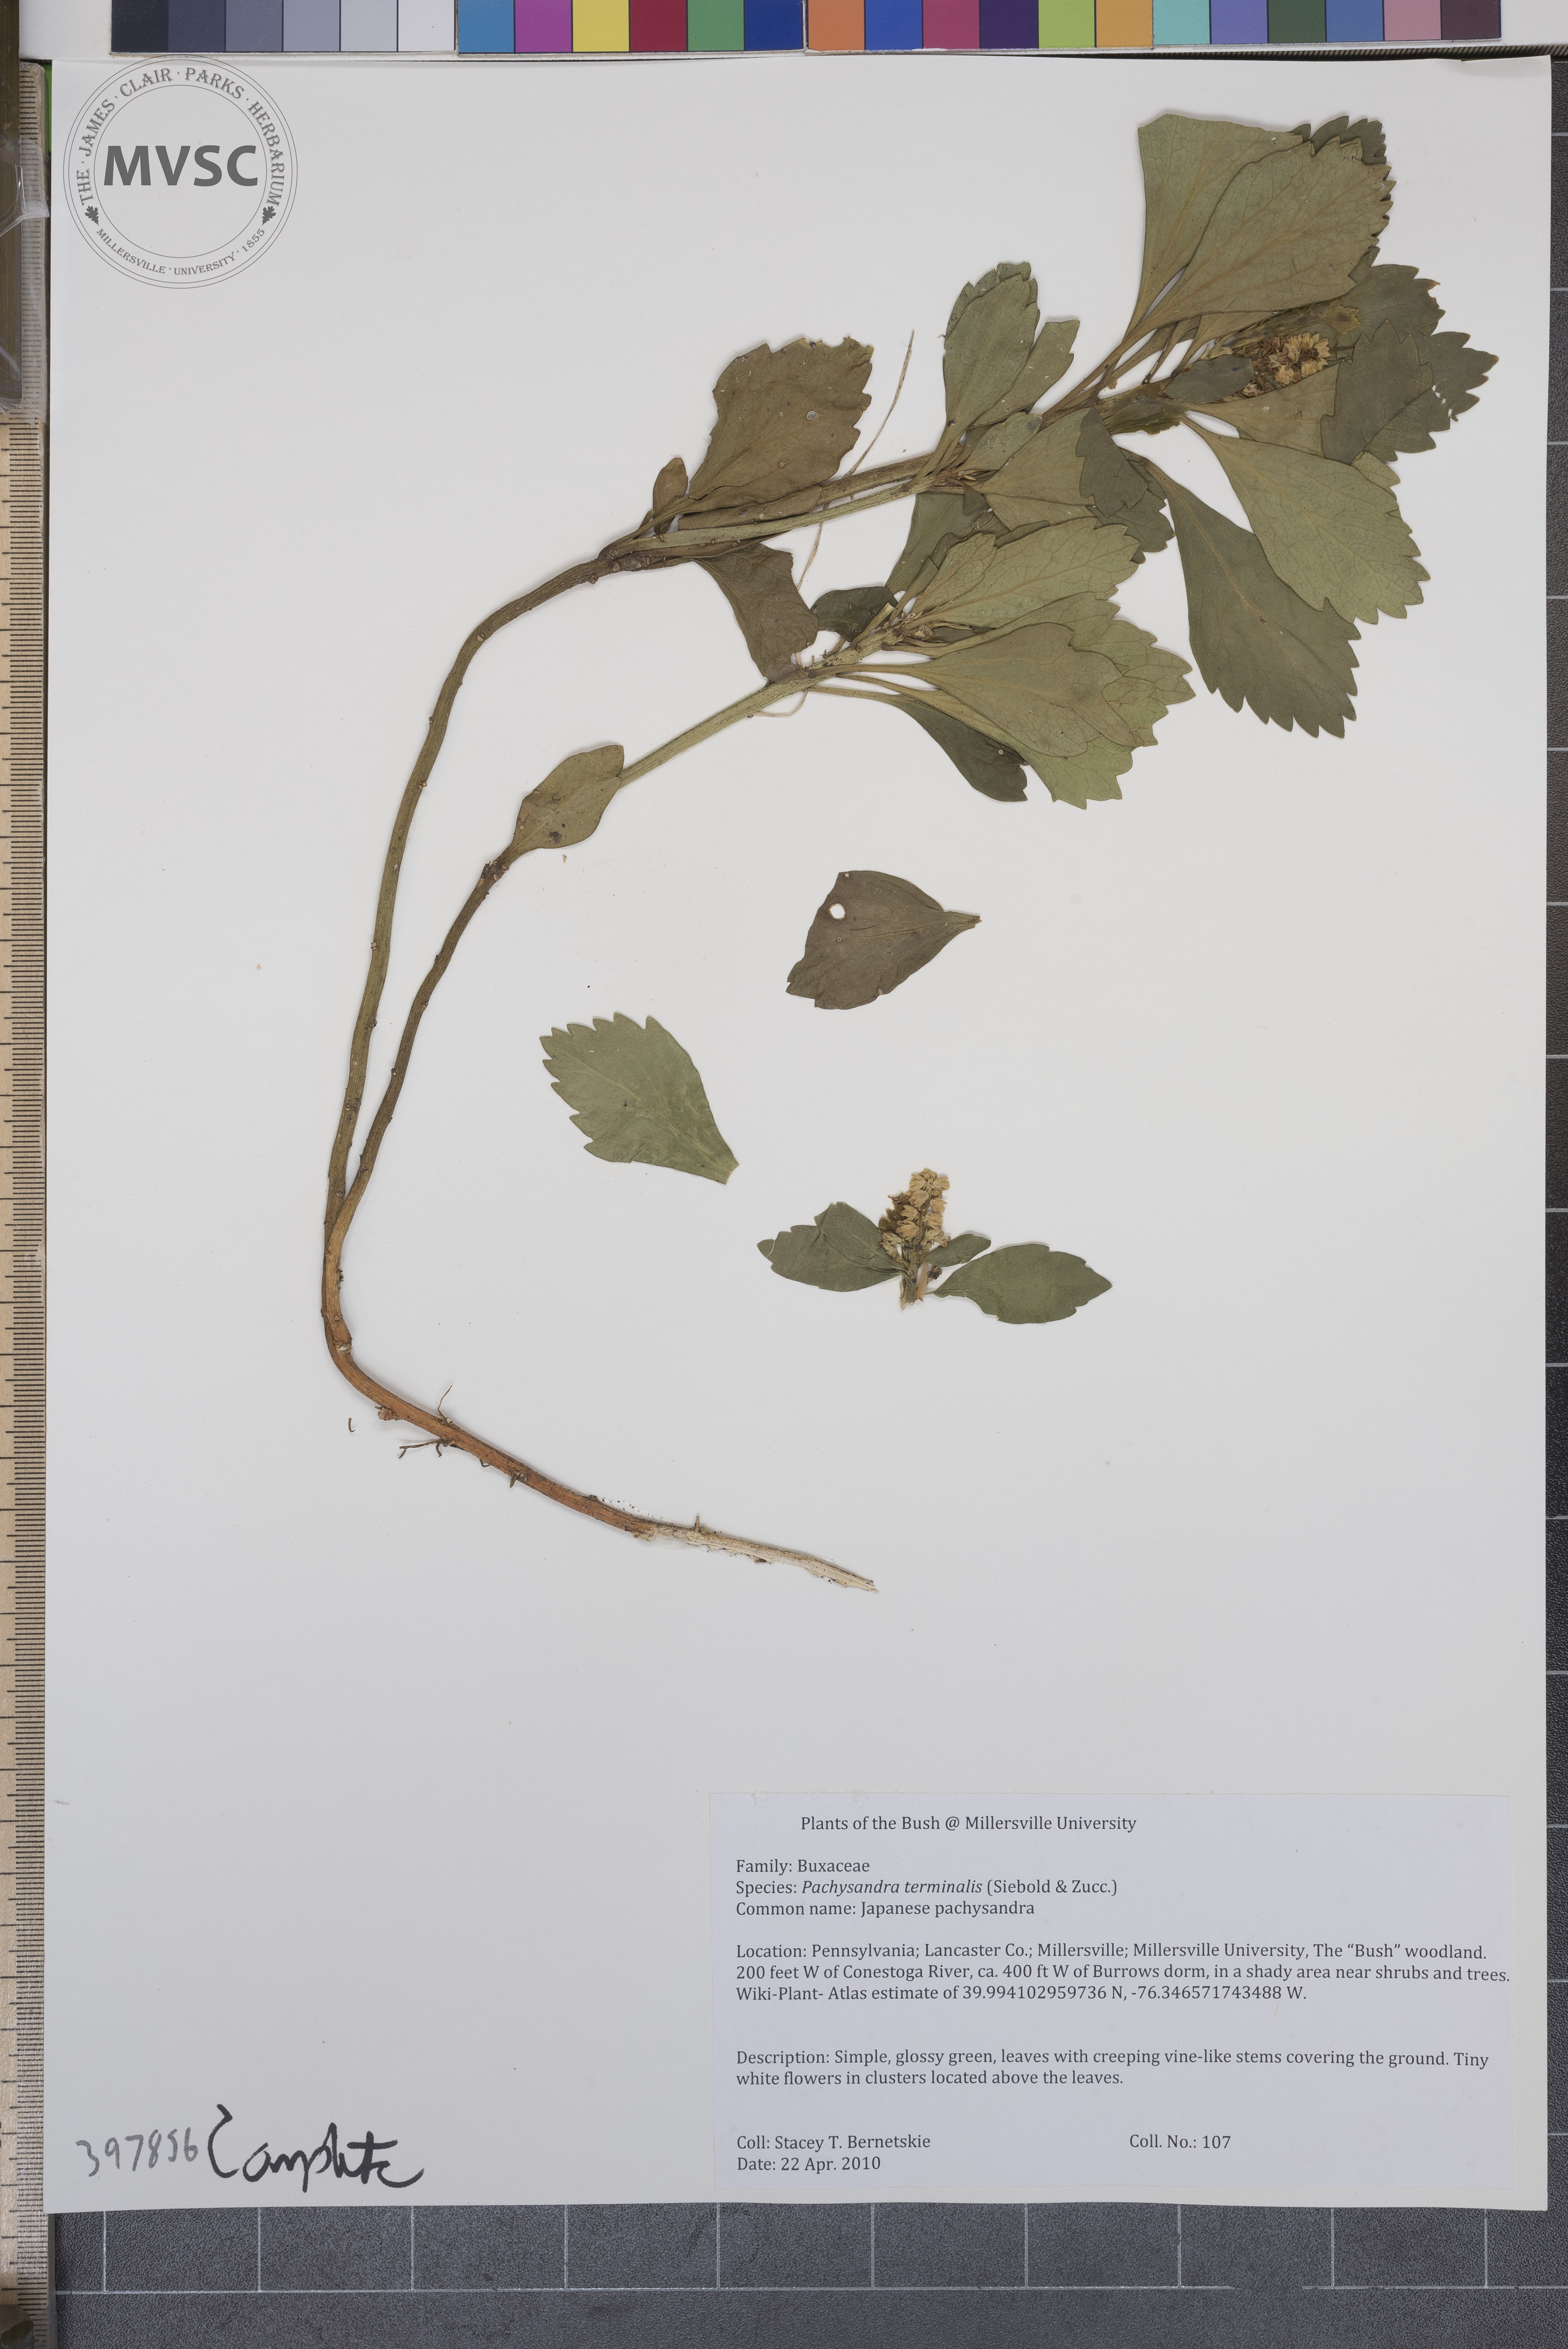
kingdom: Plantae
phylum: Tracheophyta
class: Magnoliopsida
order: Buxales
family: Buxaceae
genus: Pachysandra
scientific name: Pachysandra terminalis
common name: Japanese pachysandra
